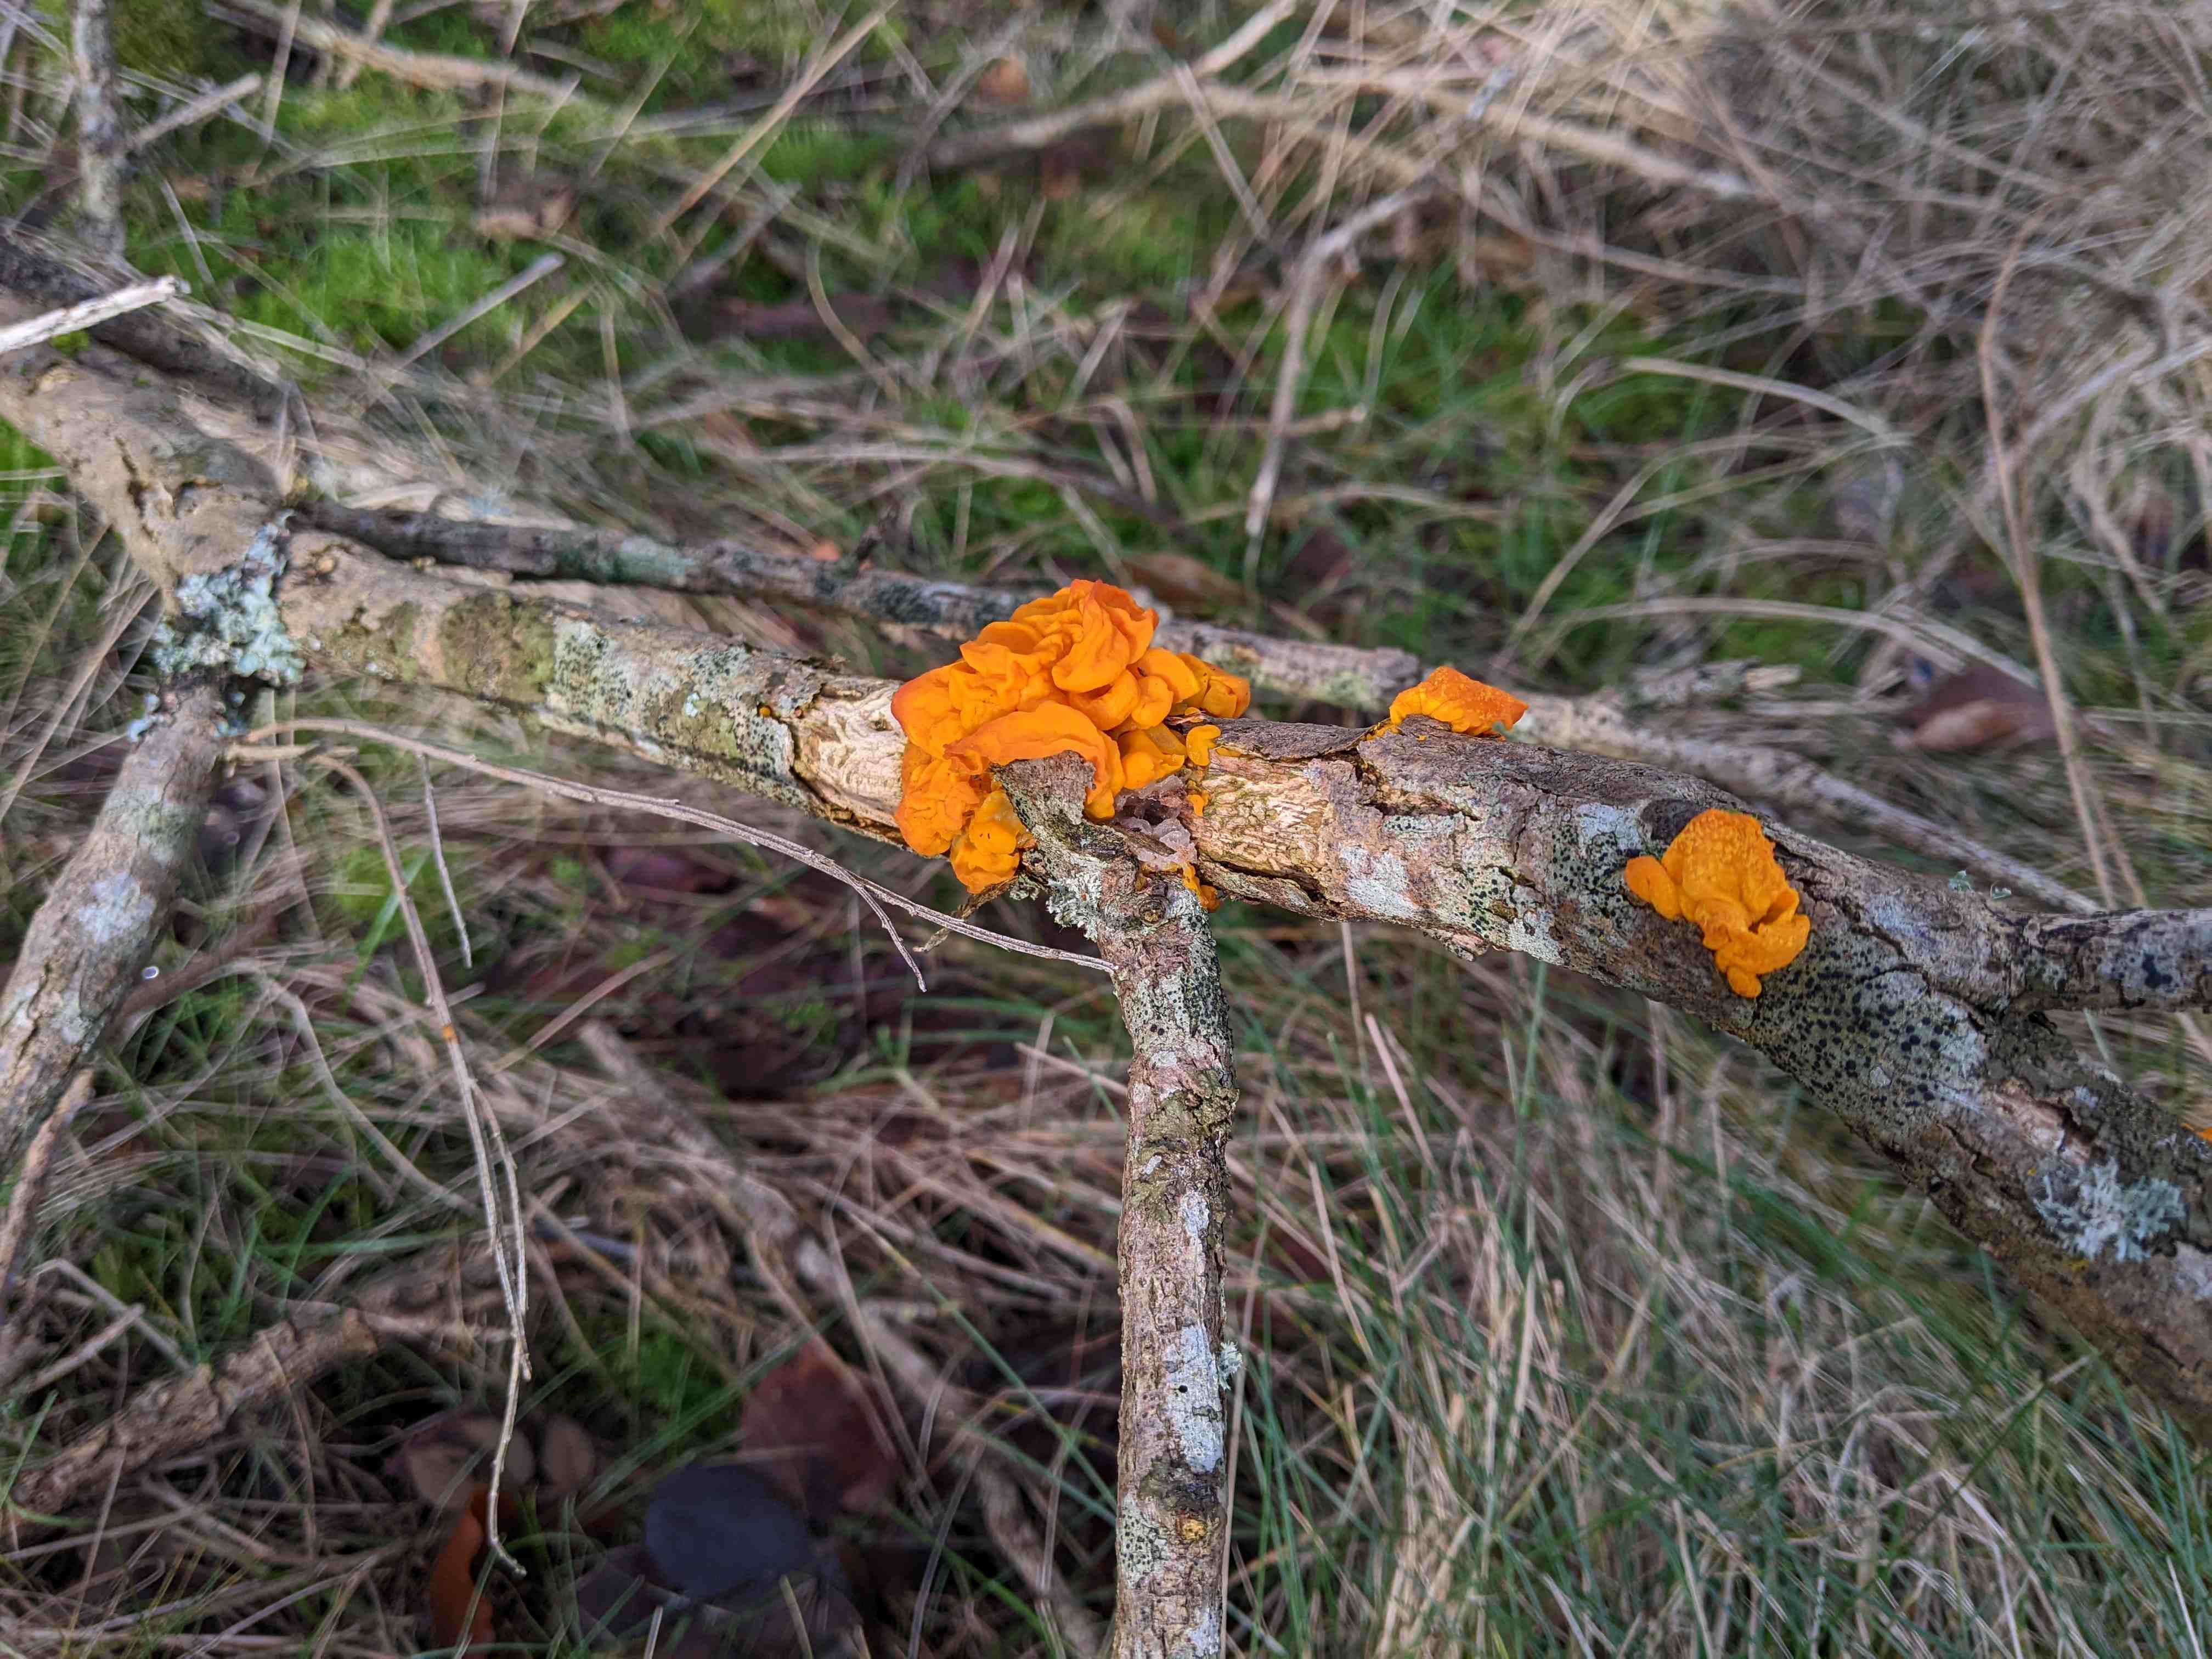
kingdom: Fungi
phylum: Basidiomycota
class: Tremellomycetes
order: Tremellales
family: Tremellaceae
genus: Tremella
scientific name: Tremella mesenterica
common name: gul bævresvamp
